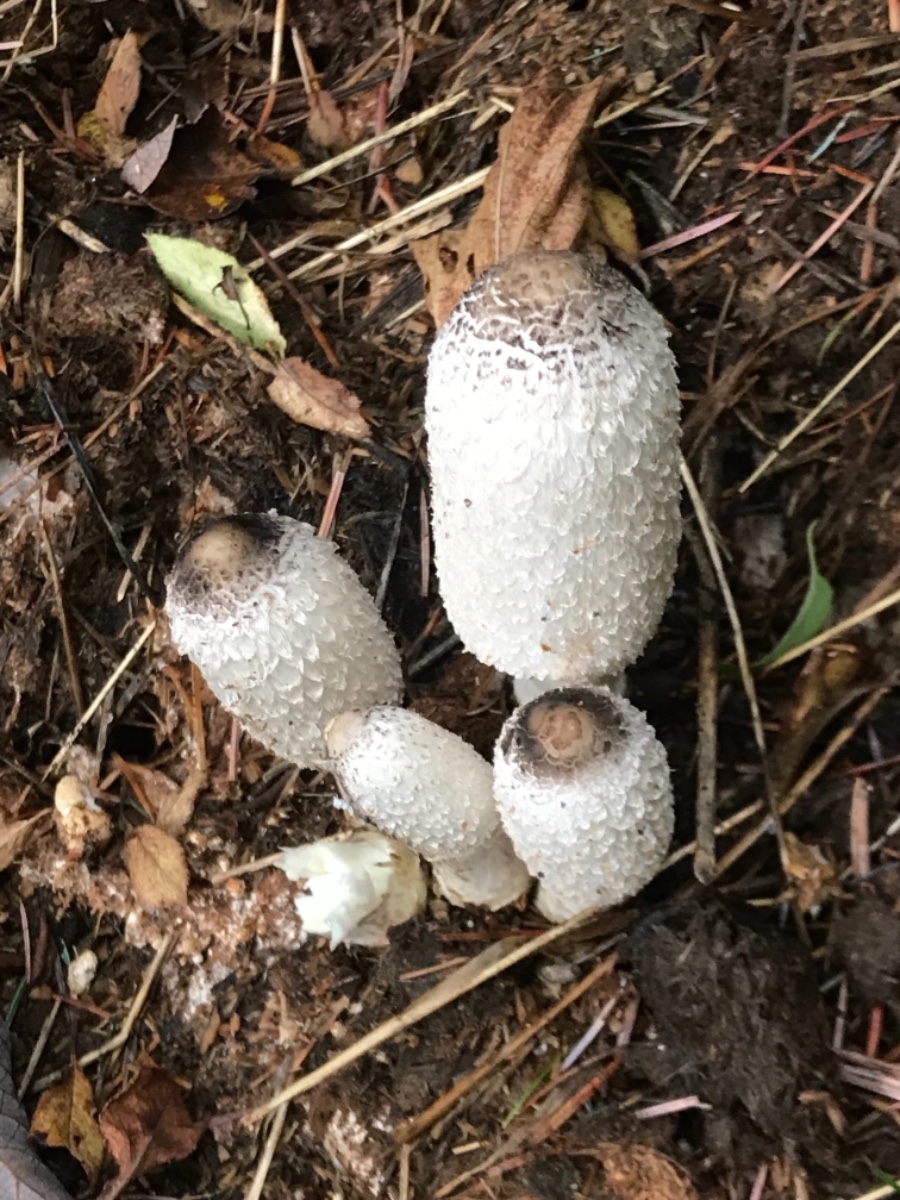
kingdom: Fungi
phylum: Basidiomycota
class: Agaricomycetes
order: Agaricales
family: Agaricaceae
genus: Coprinus
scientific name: Coprinus sterquilinus
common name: møg-parykhat
